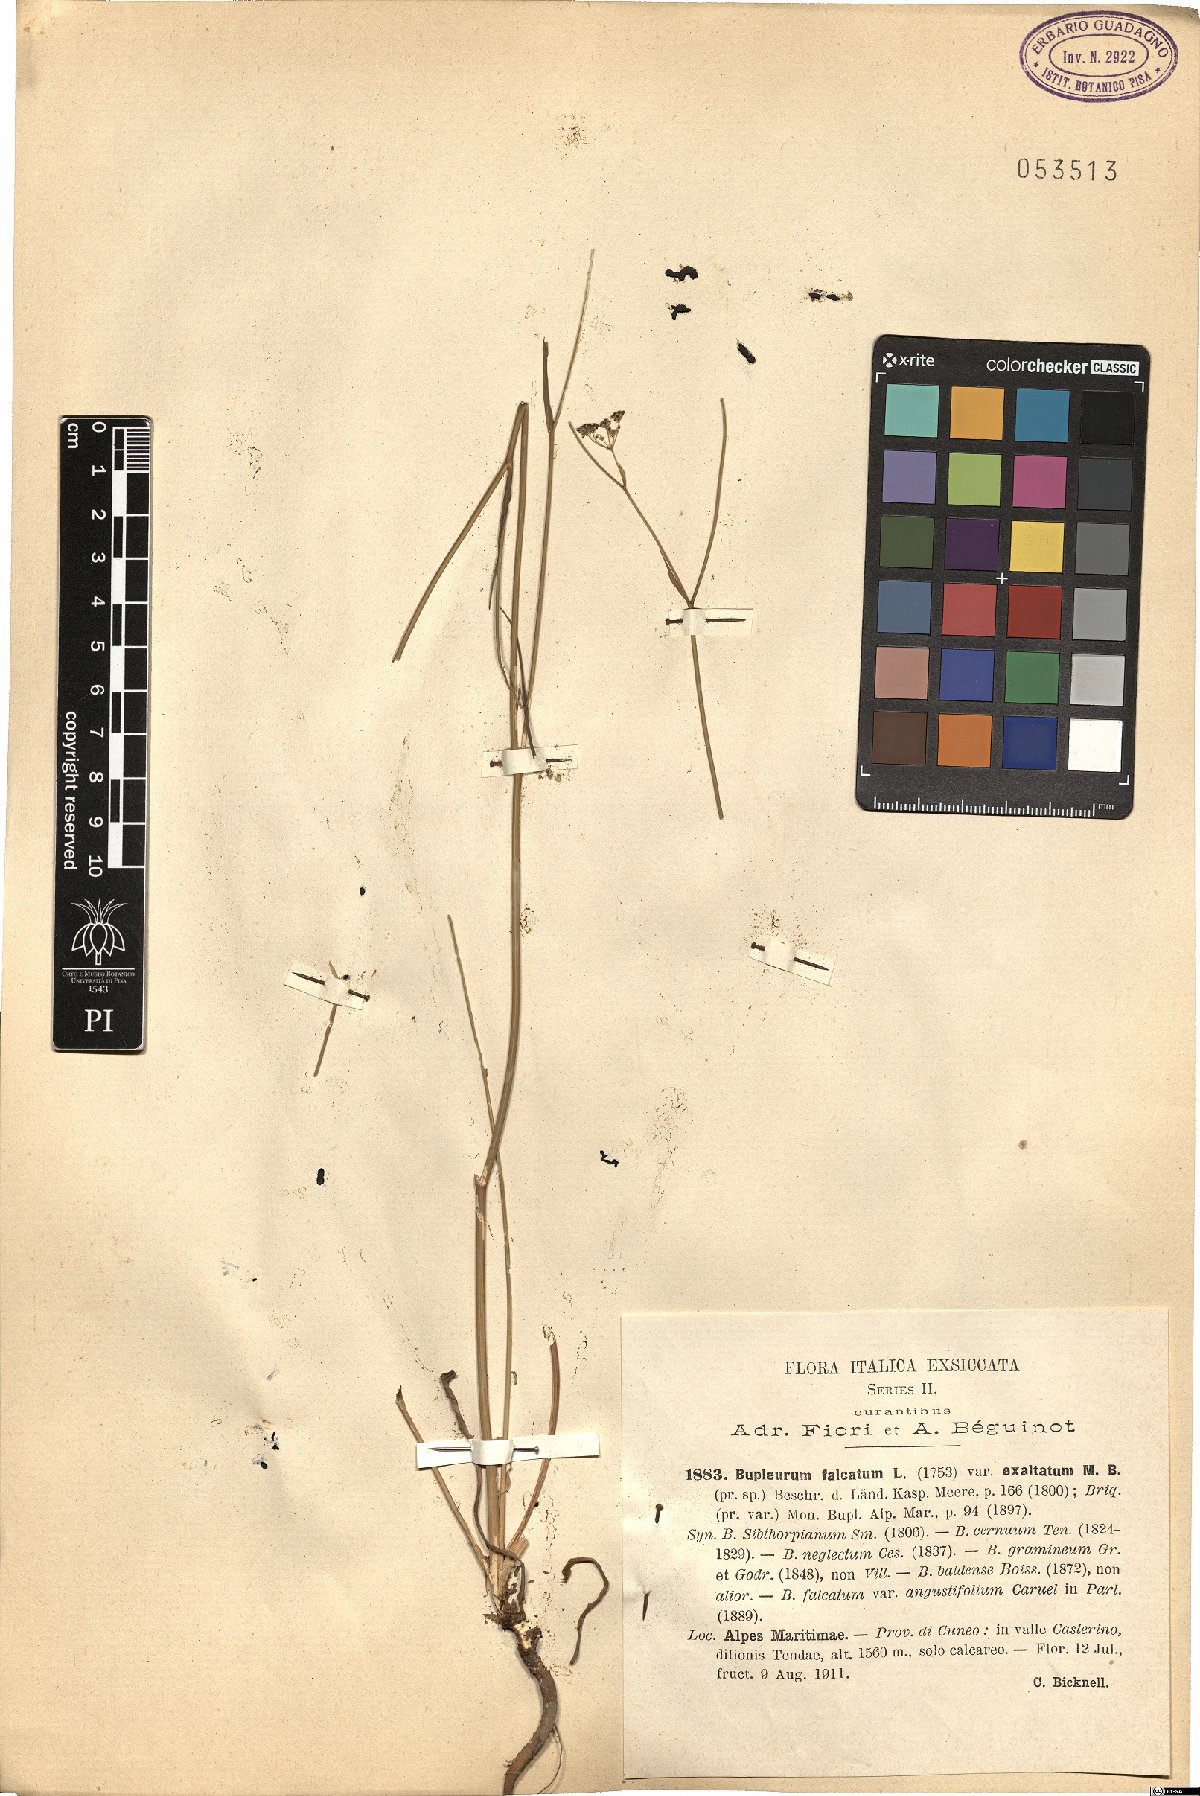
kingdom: Plantae
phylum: Tracheophyta
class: Magnoliopsida
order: Apiales
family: Apiaceae
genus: Bupleurum
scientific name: Bupleurum exaltatum
